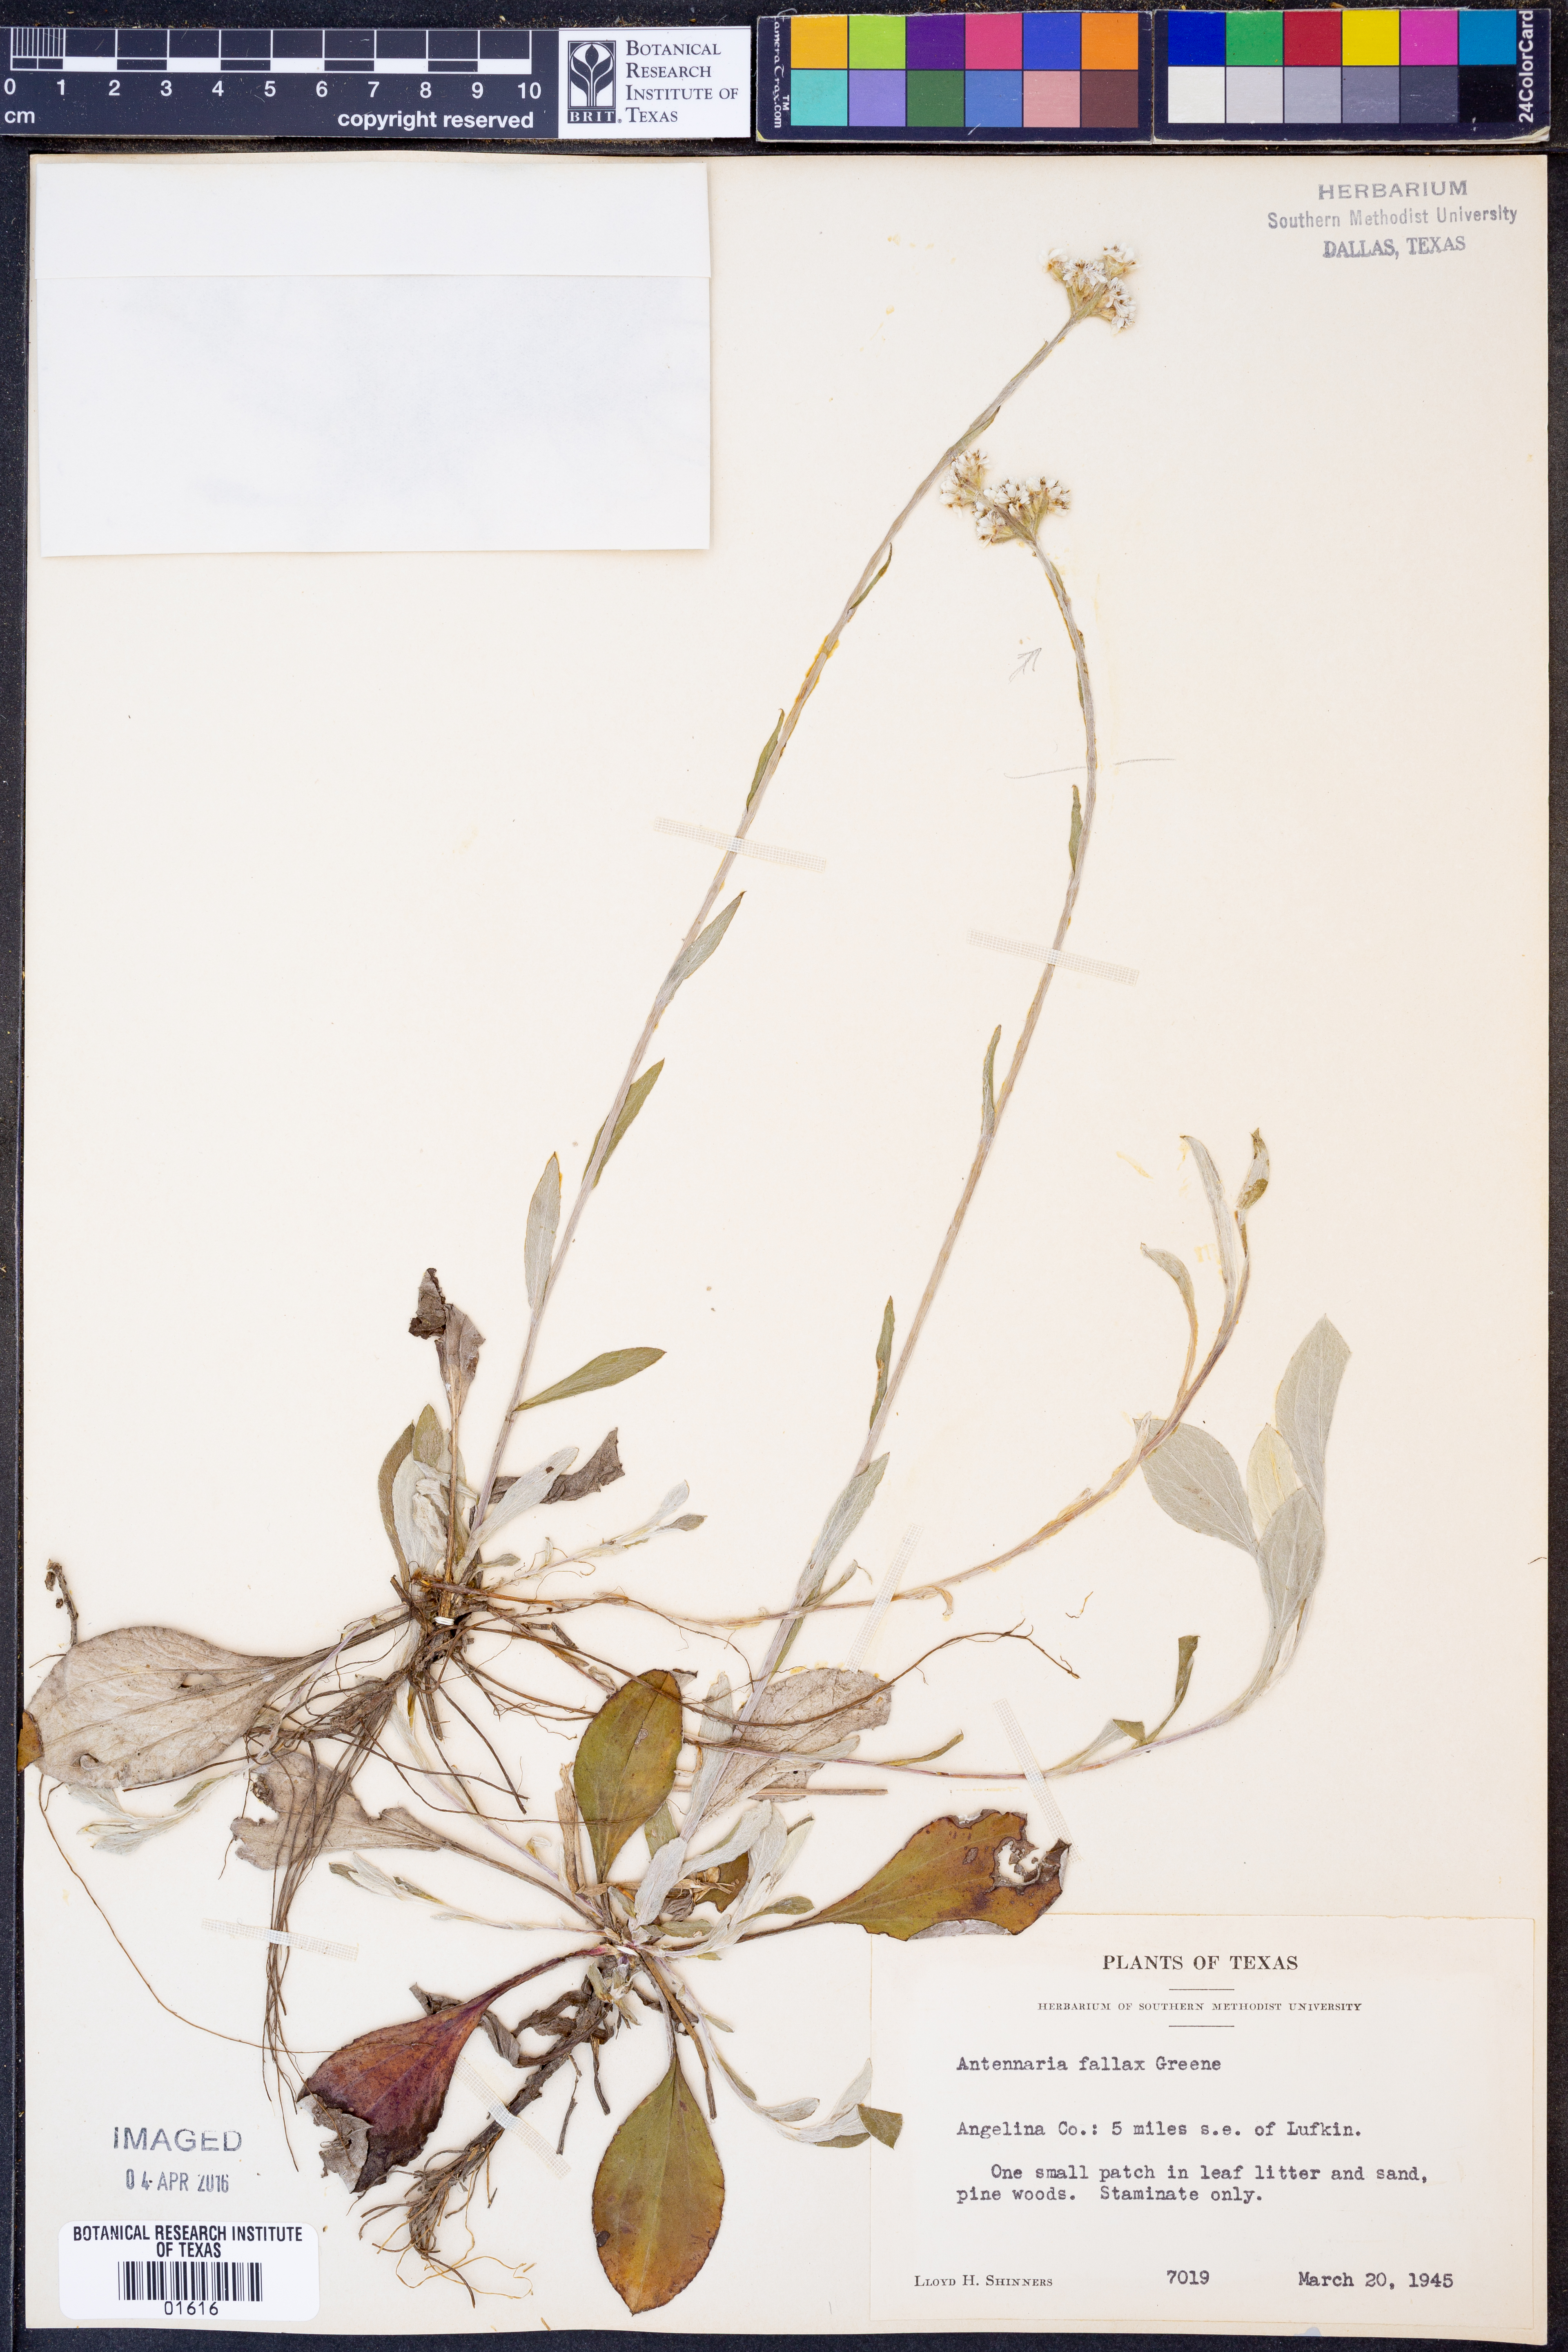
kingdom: Plantae
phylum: Tracheophyta
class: Magnoliopsida
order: Asterales
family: Asteraceae
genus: Antennaria
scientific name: Antennaria parlinii
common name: Parlin's pussytoes
